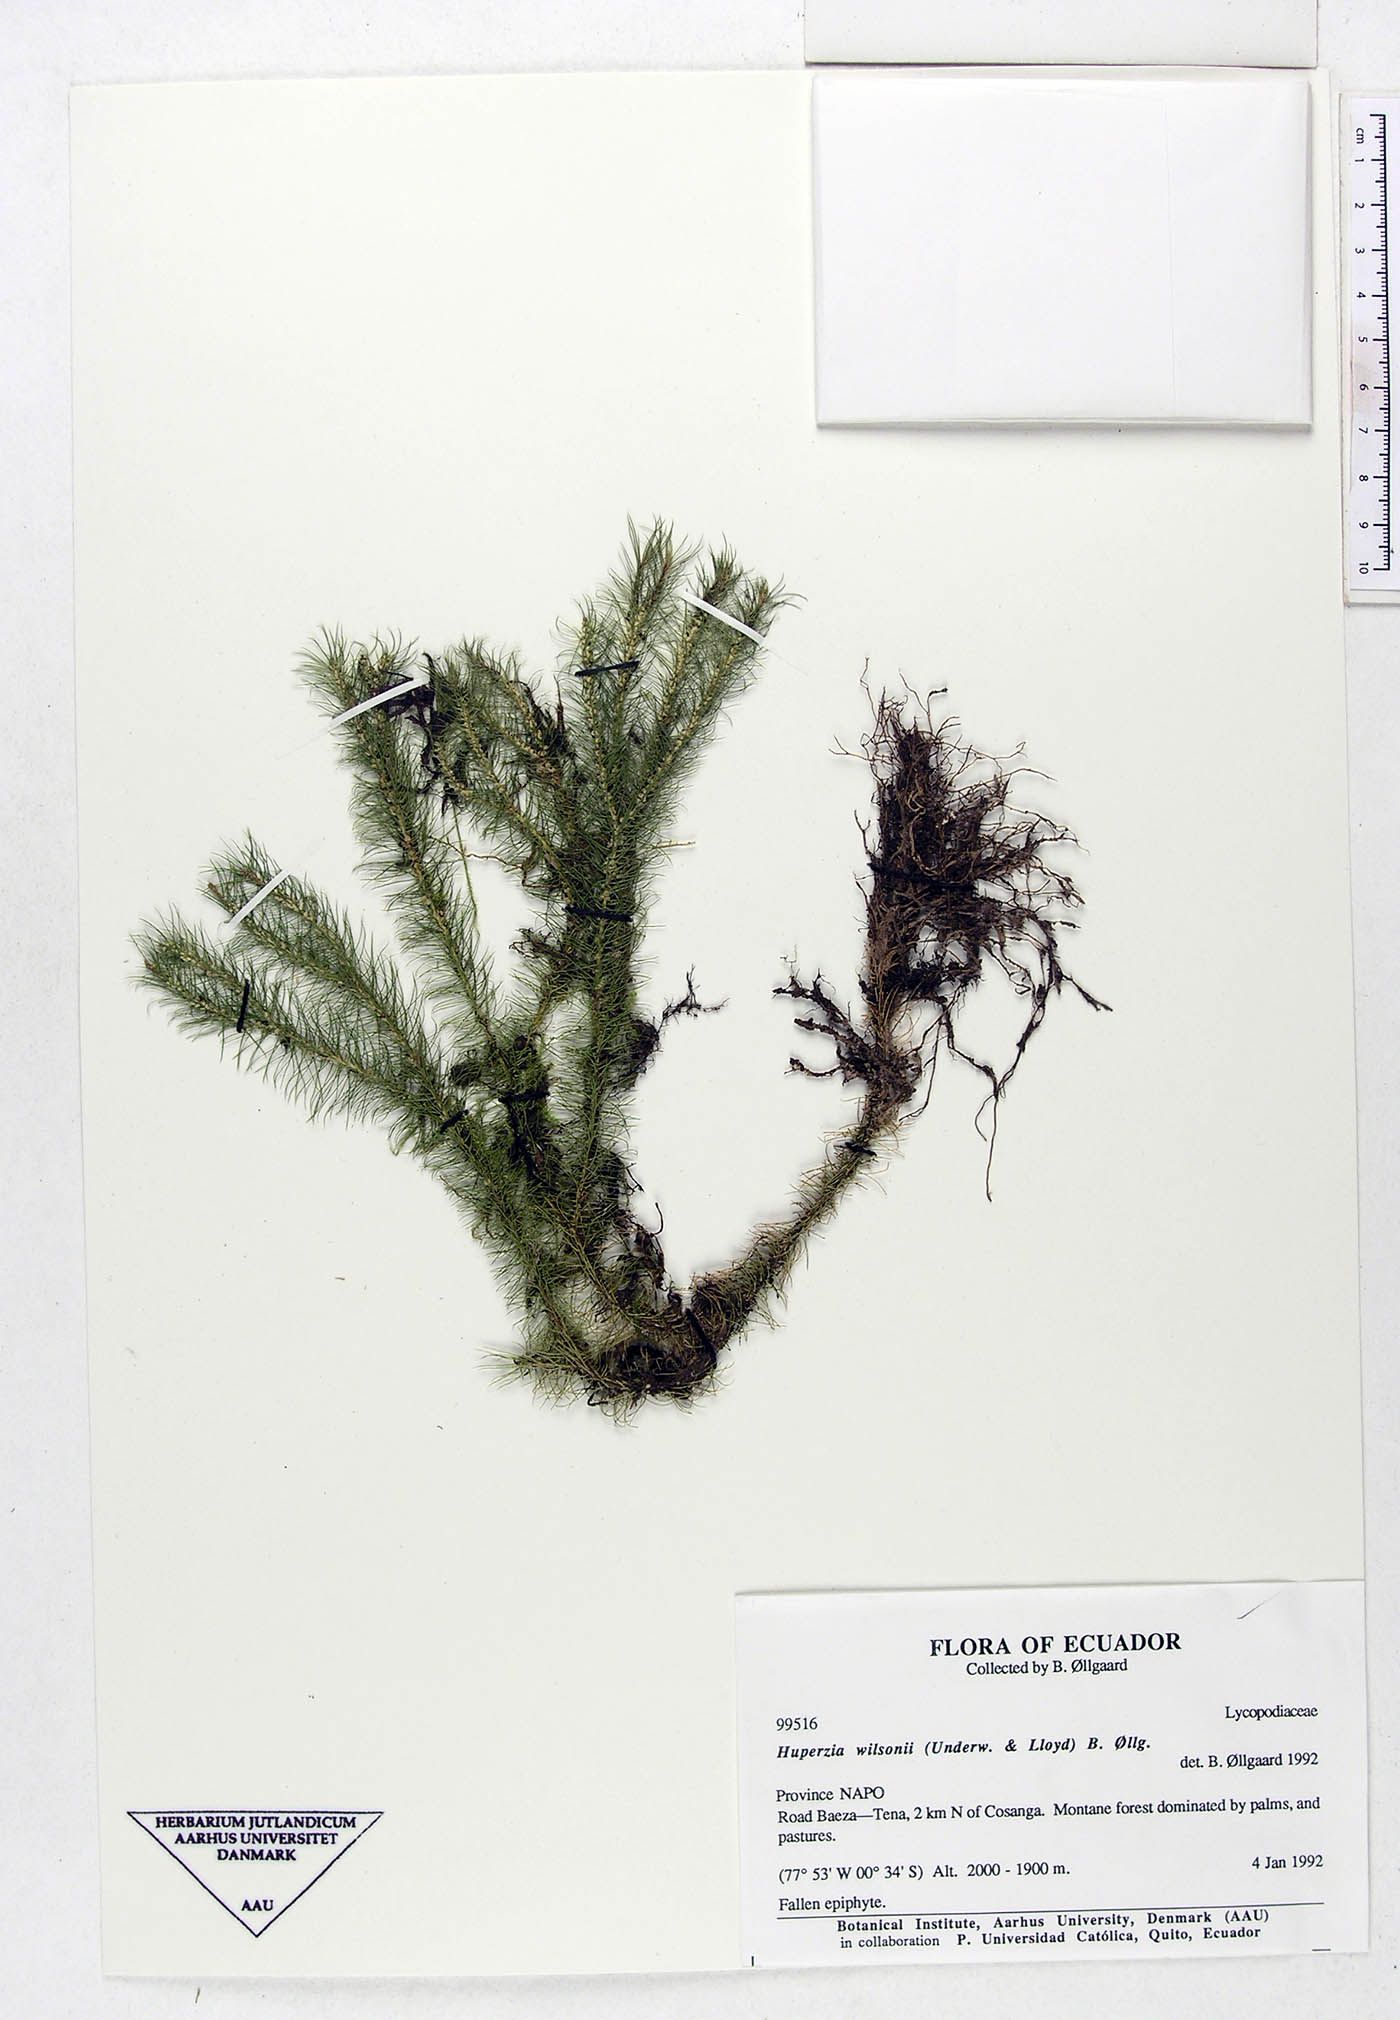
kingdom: Plantae
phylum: Tracheophyta
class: Lycopodiopsida
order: Lycopodiales
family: Lycopodiaceae
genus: Phlegmariurus
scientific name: Phlegmariurus wilsonii
